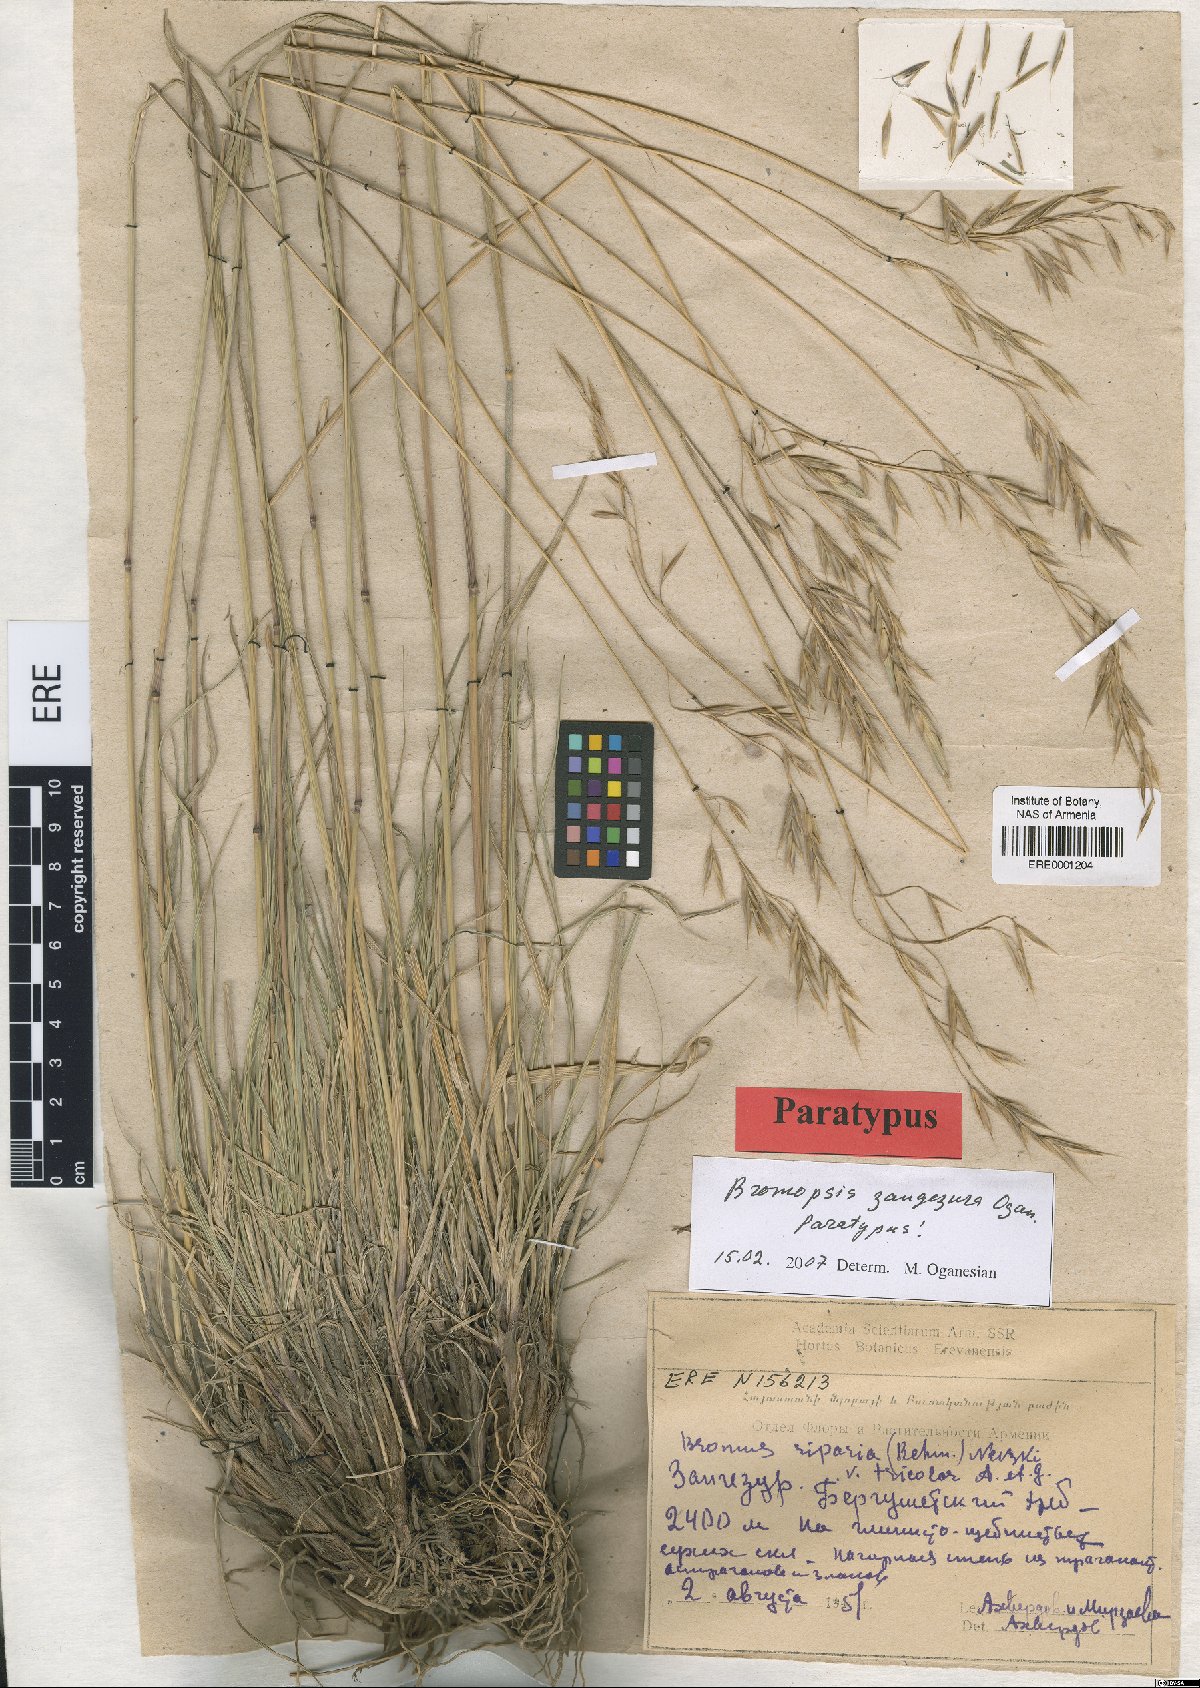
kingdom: Plantae
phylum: Tracheophyta
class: Liliopsida
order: Poales
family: Poaceae
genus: Bromus
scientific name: Bromus erectus
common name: Erect brome
